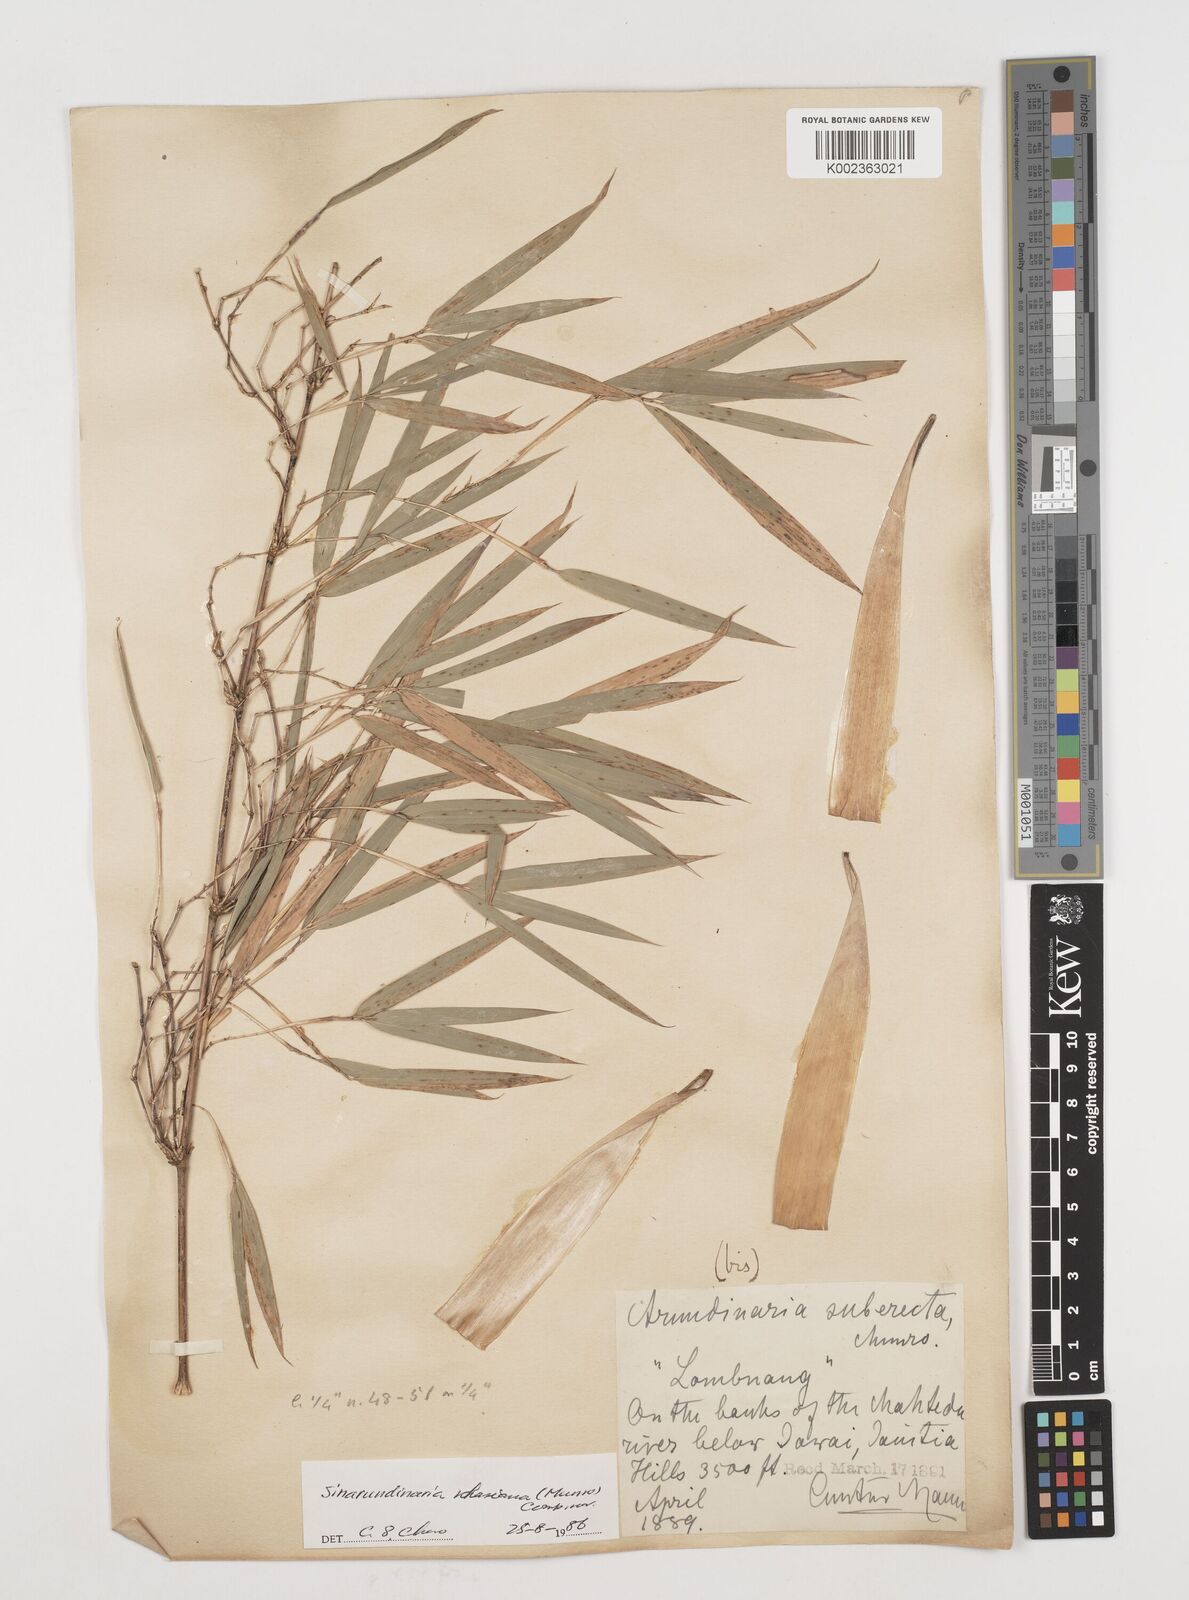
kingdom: Plantae
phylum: Tracheophyta
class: Liliopsida
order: Poales
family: Poaceae
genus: Drepanostachyum
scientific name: Drepanostachyum khasianum
